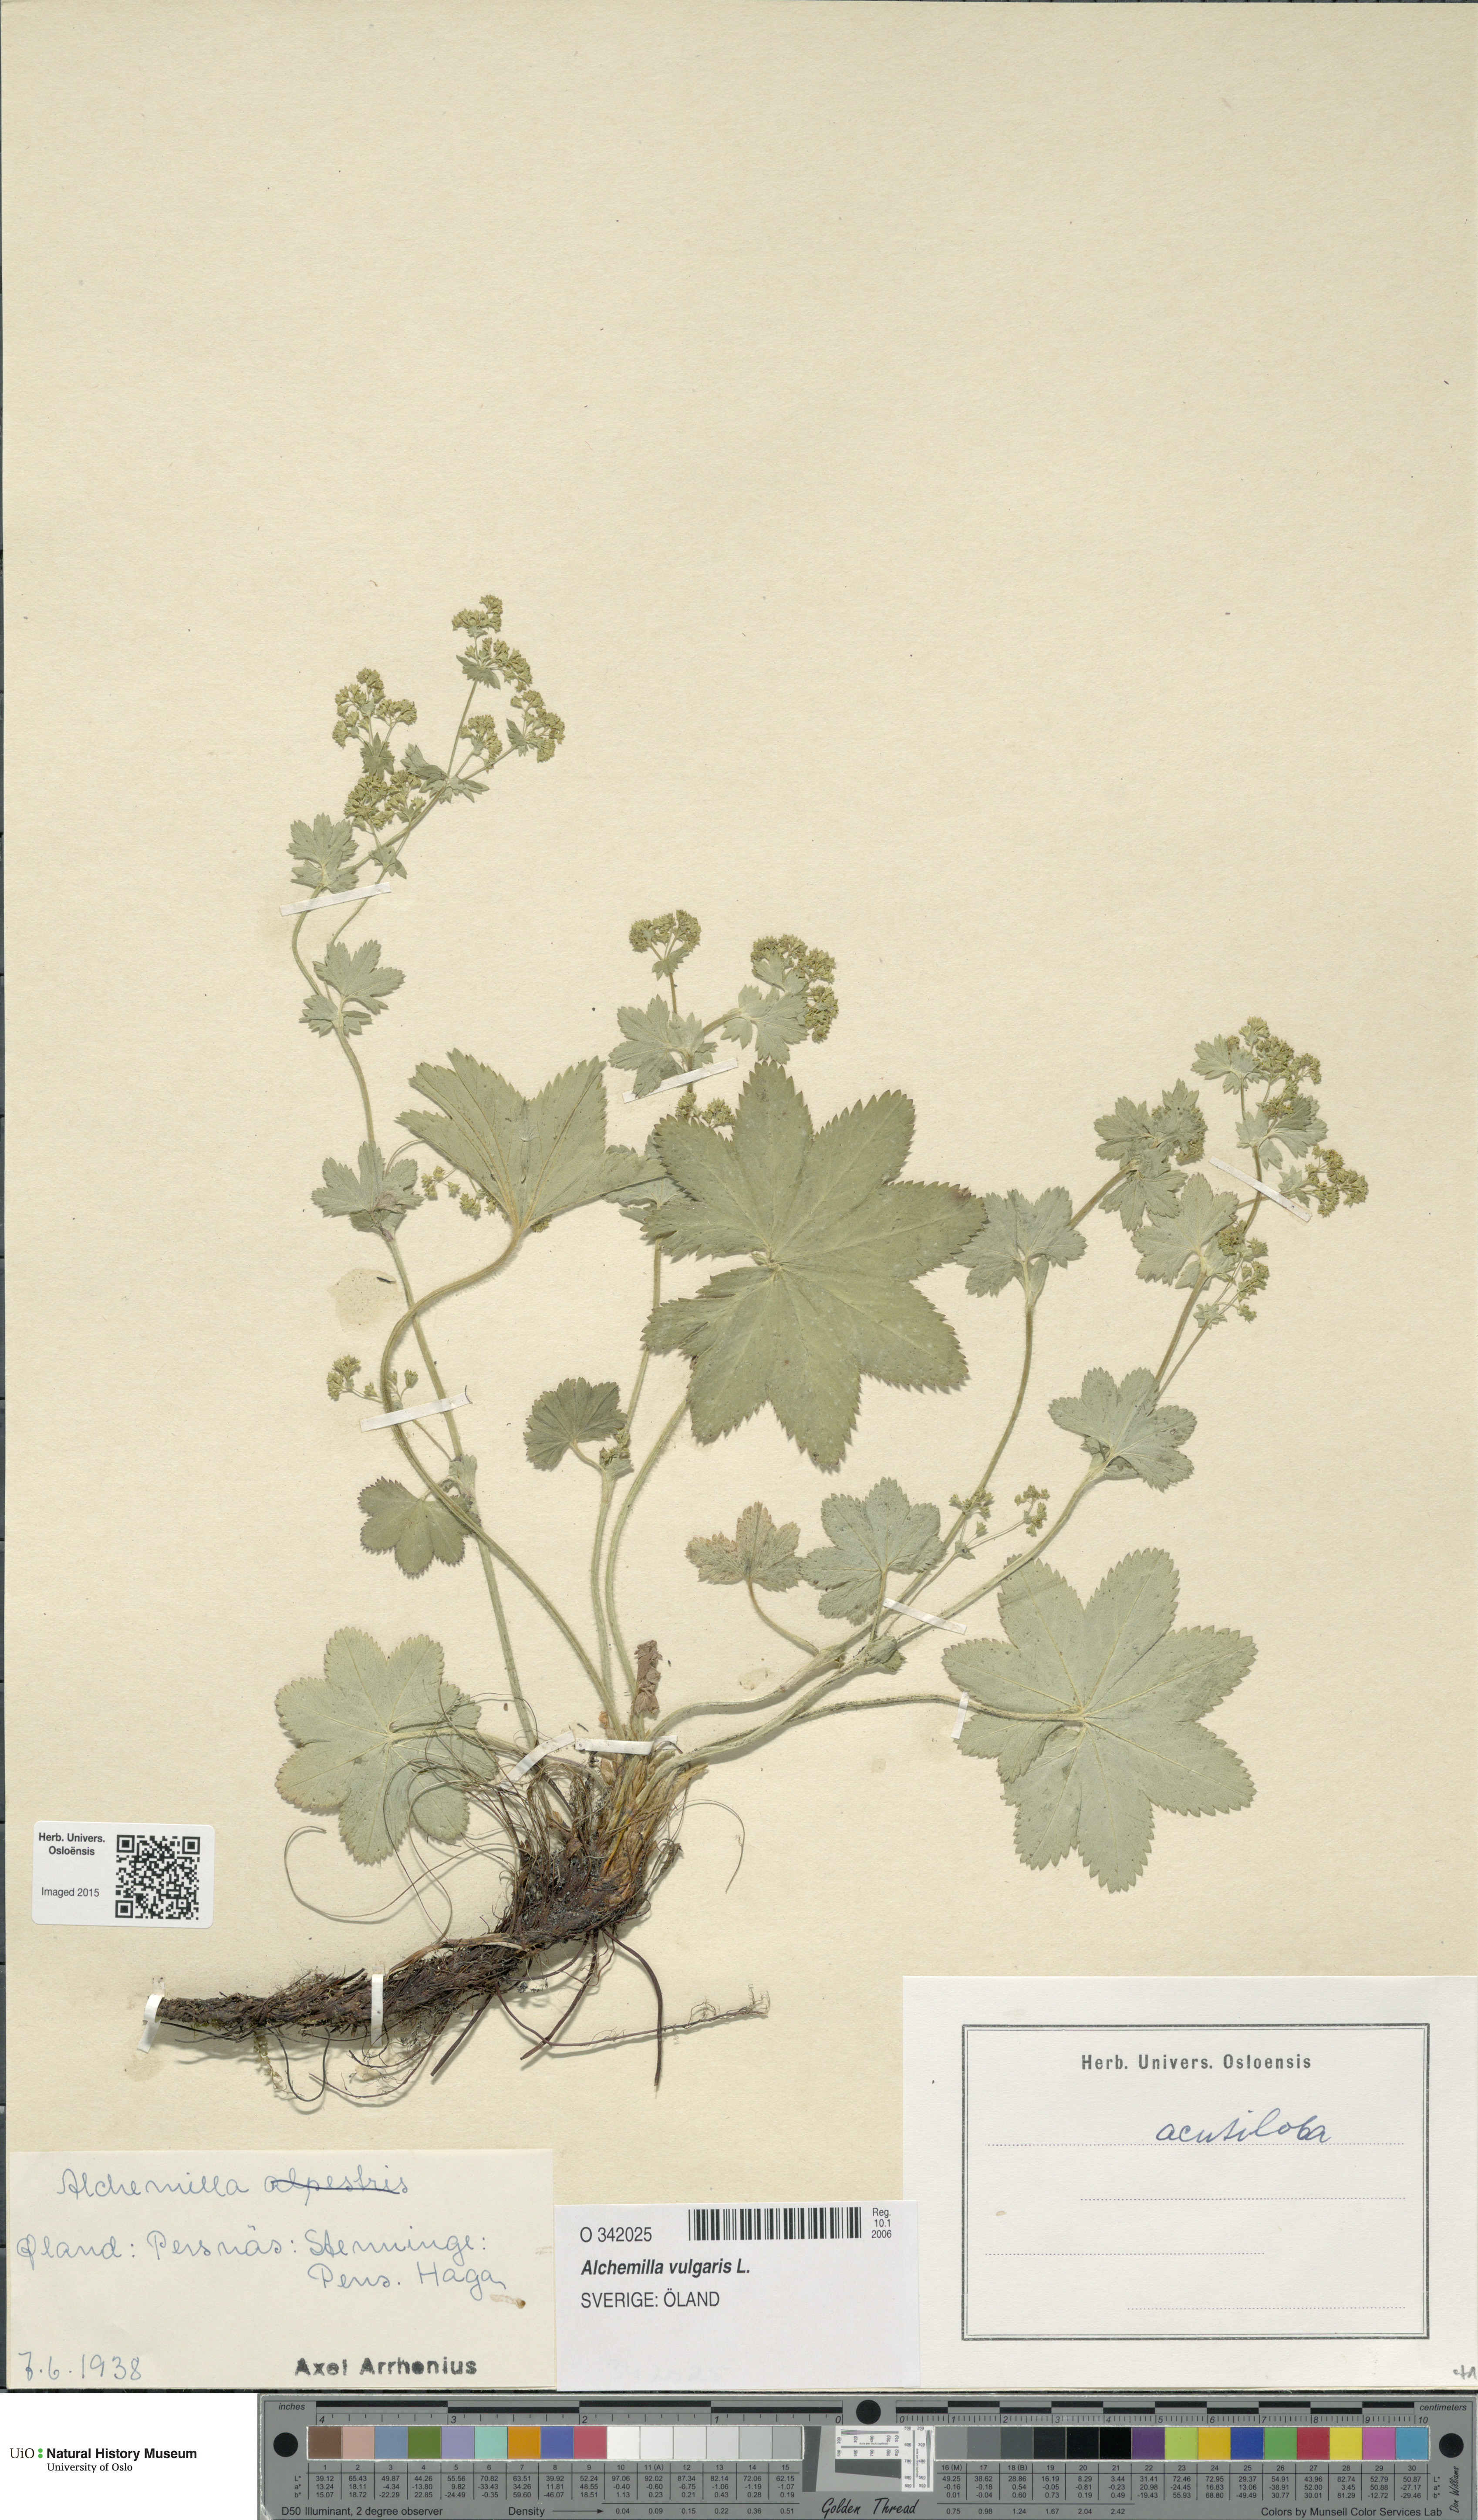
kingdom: Plantae
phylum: Tracheophyta
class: Magnoliopsida
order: Rosales
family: Rosaceae
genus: Alchemilla
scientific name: Alchemilla vulgaris
